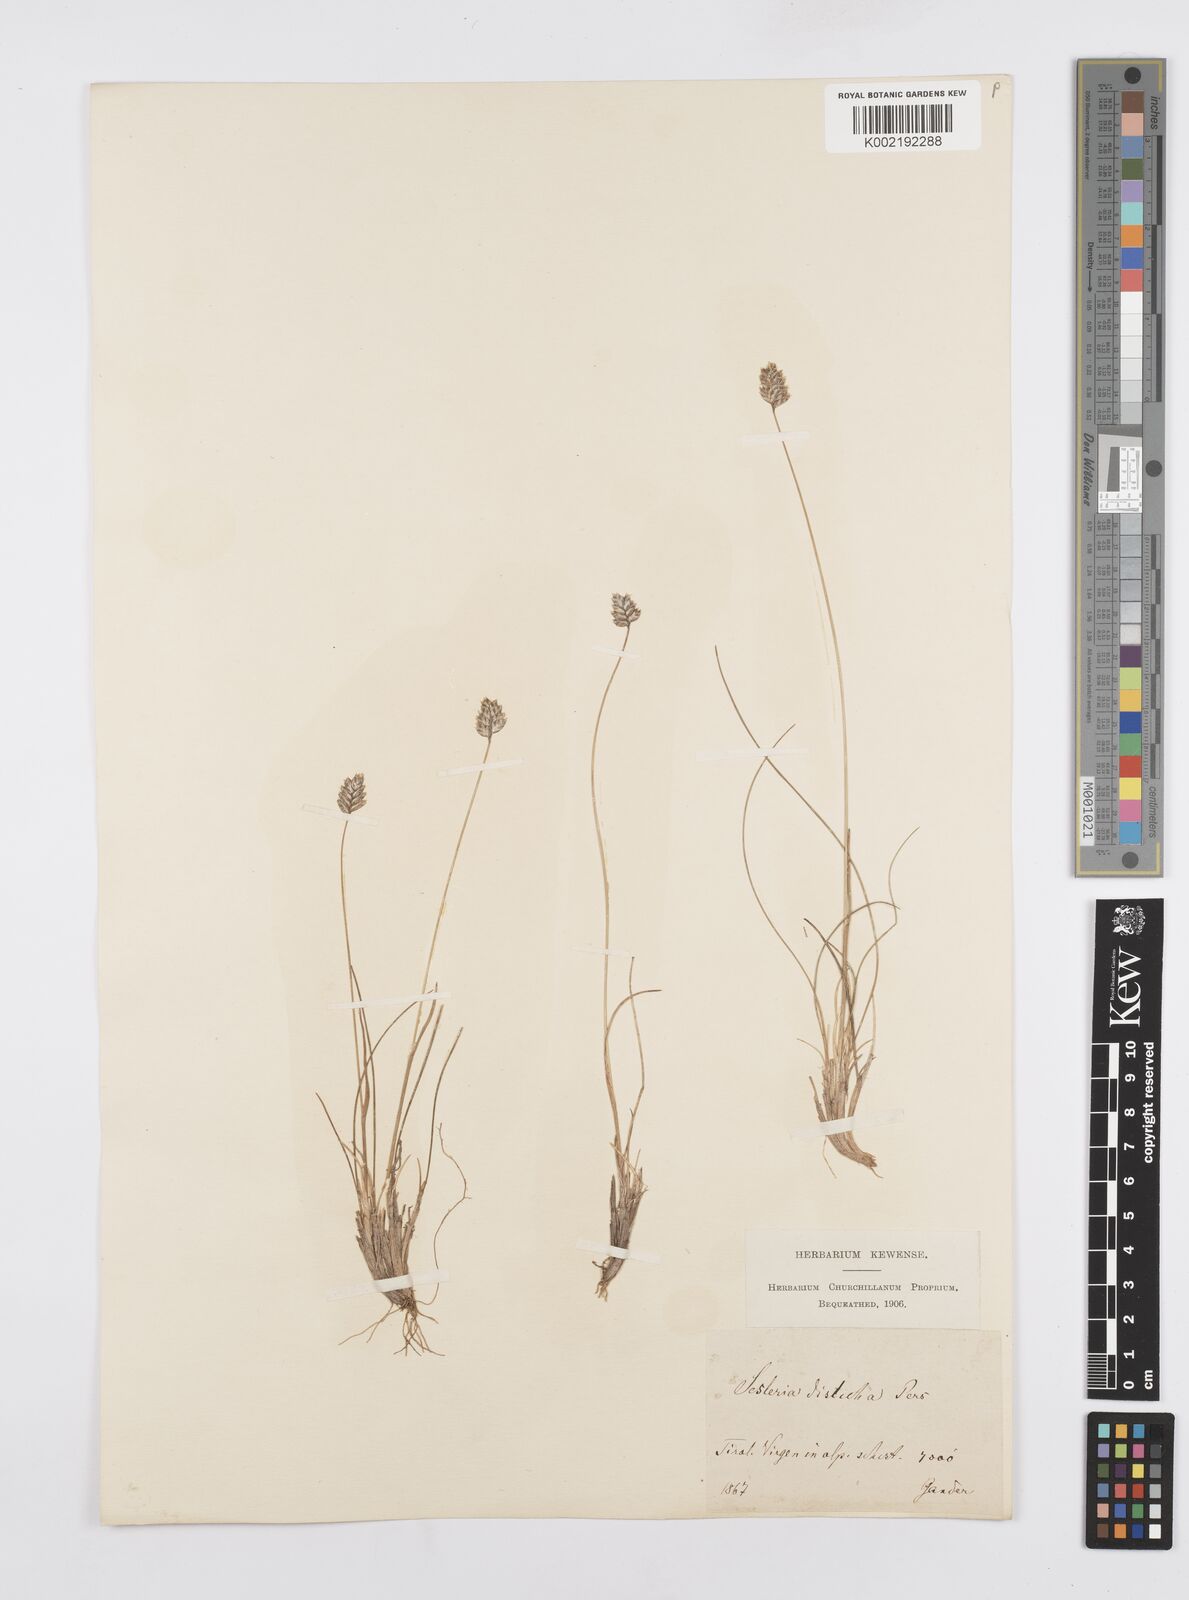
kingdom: Plantae
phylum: Tracheophyta
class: Liliopsida
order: Poales
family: Poaceae
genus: Oreochloa
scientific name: Oreochloa disticha
